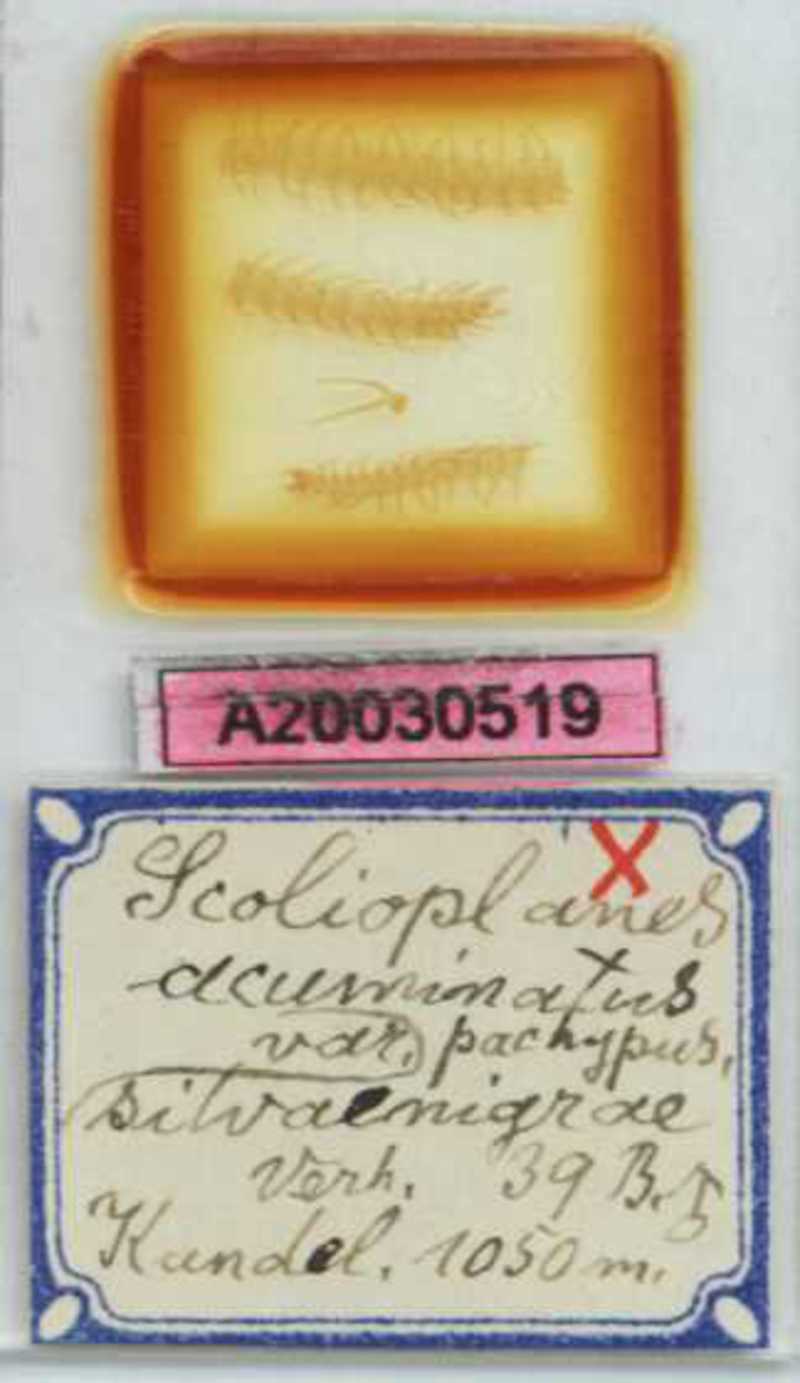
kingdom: Animalia
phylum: Arthropoda
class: Chilopoda
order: Geophilomorpha
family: Linotaeniidae
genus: Strigamia
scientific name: Strigamia acuminata
